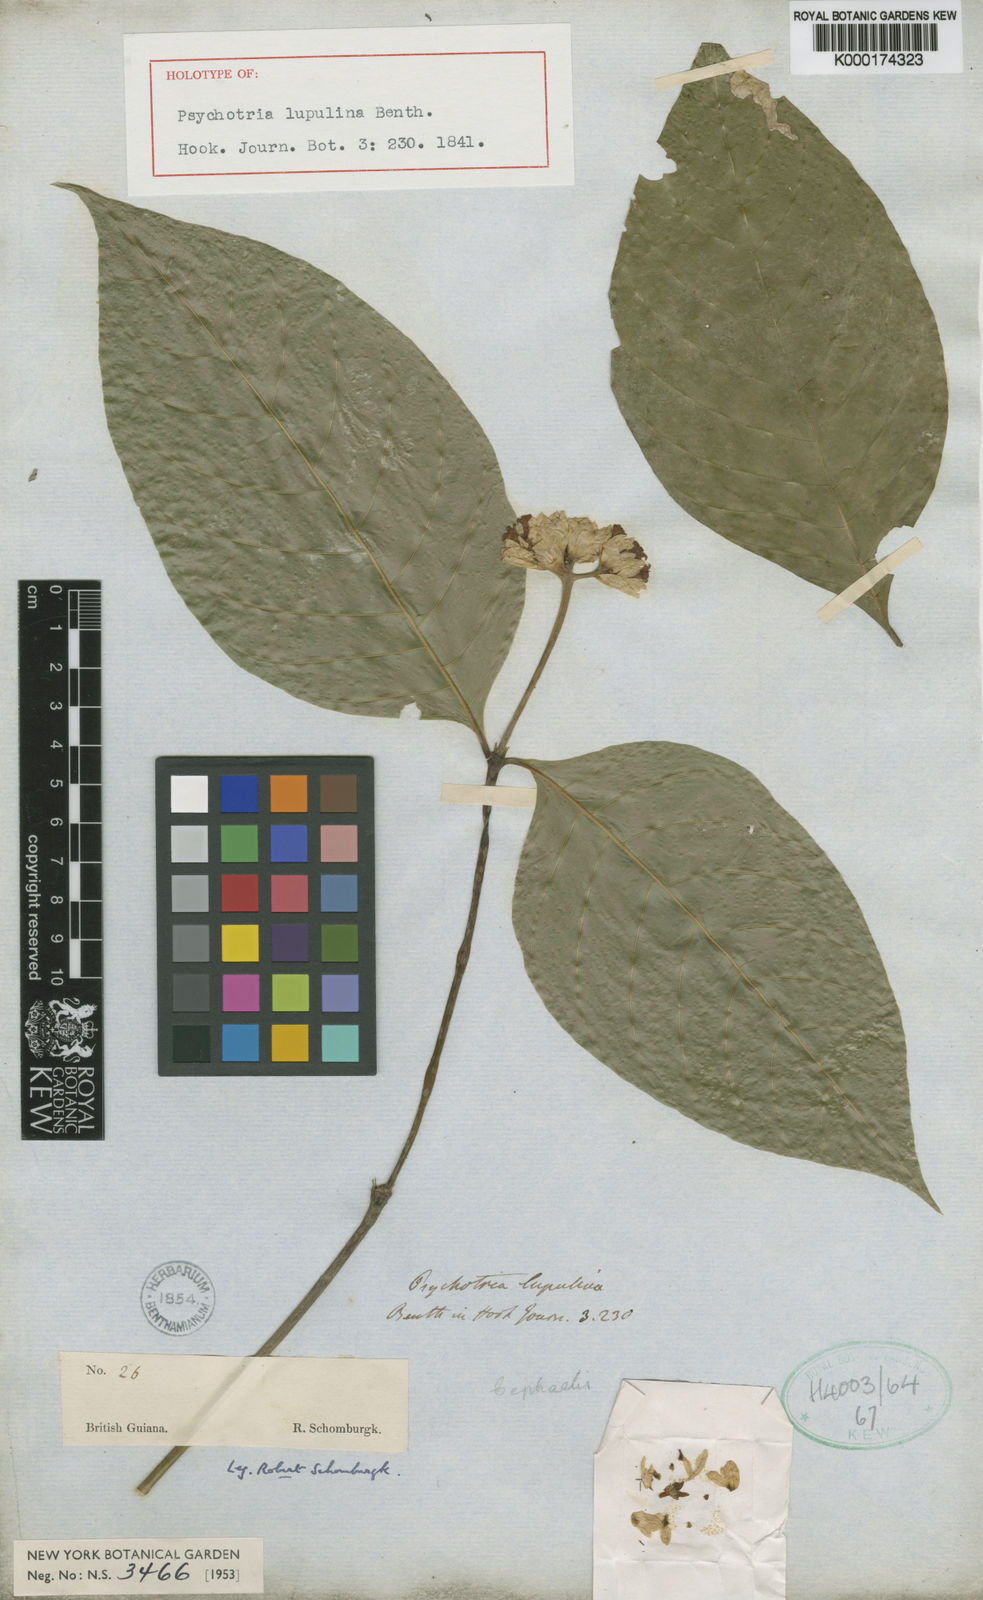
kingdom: Plantae
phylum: Tracheophyta
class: Magnoliopsida
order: Gentianales
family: Rubiaceae
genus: Palicourea
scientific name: Palicourea justiciifolia
